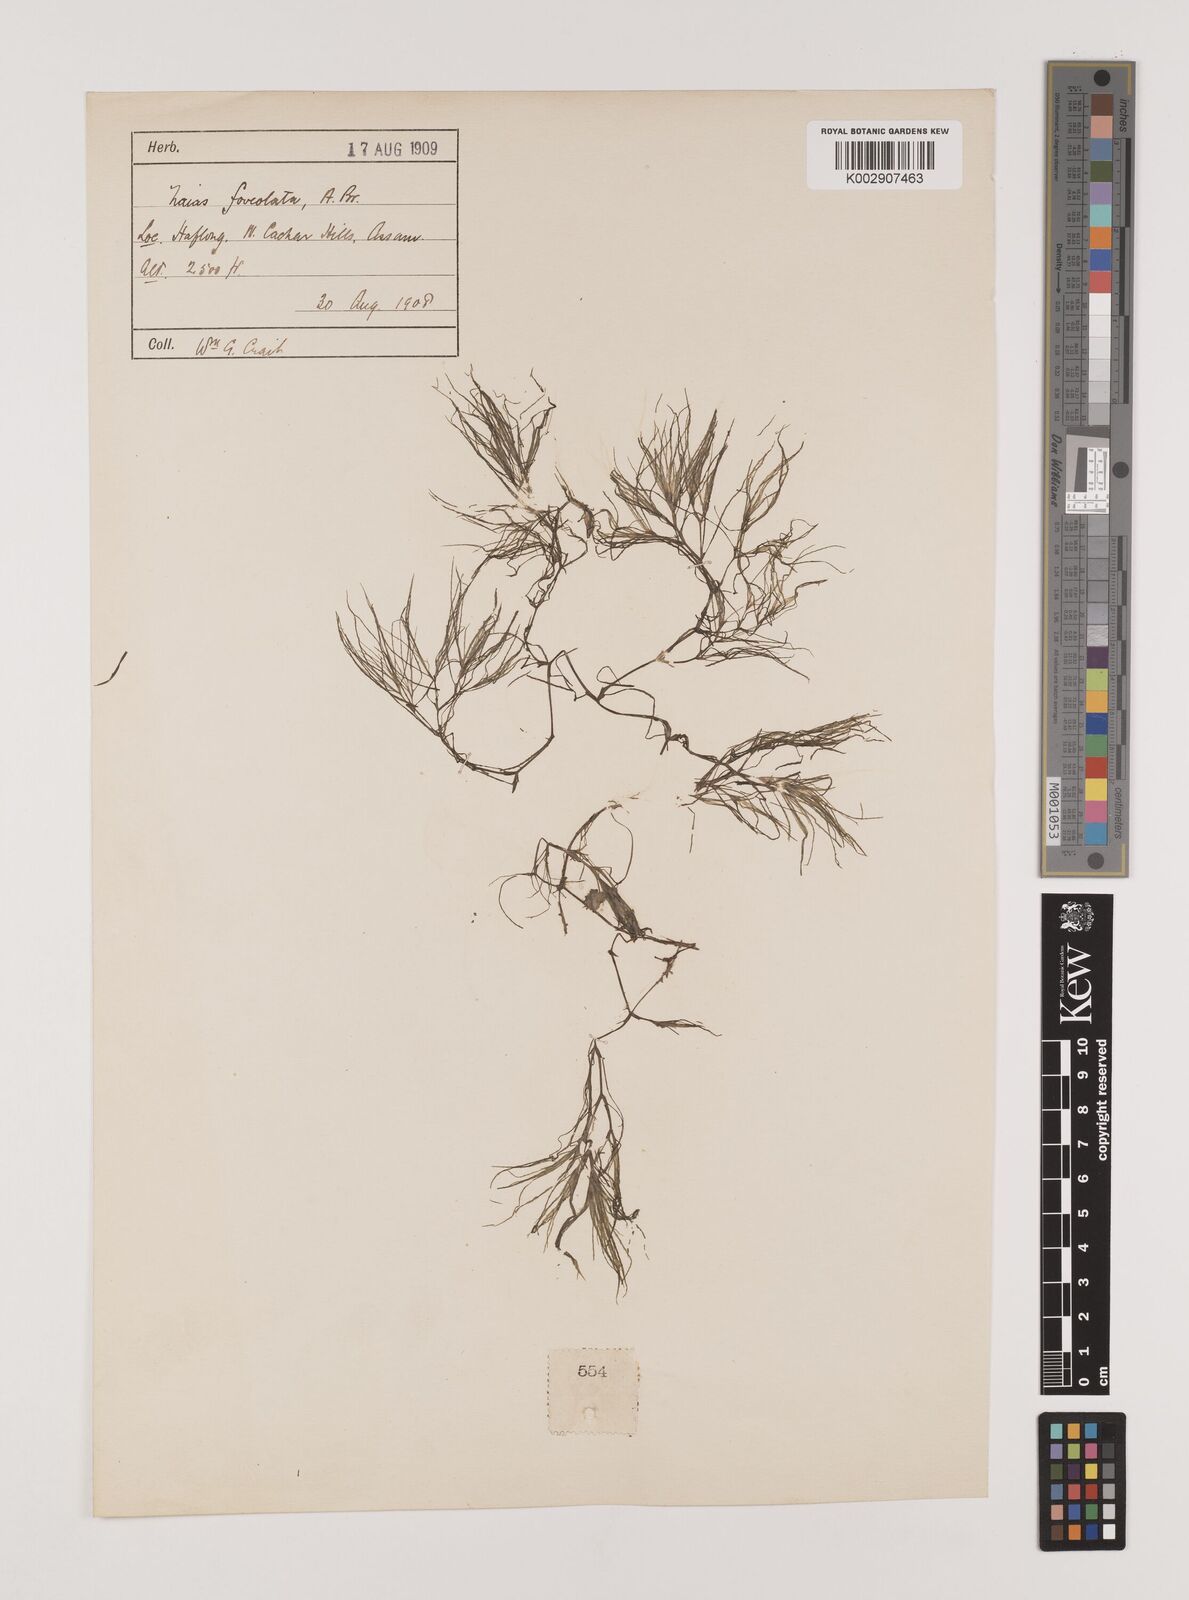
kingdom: Plantae
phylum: Tracheophyta
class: Liliopsida
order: Alismatales
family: Hydrocharitaceae
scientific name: Hydrocharitaceae
